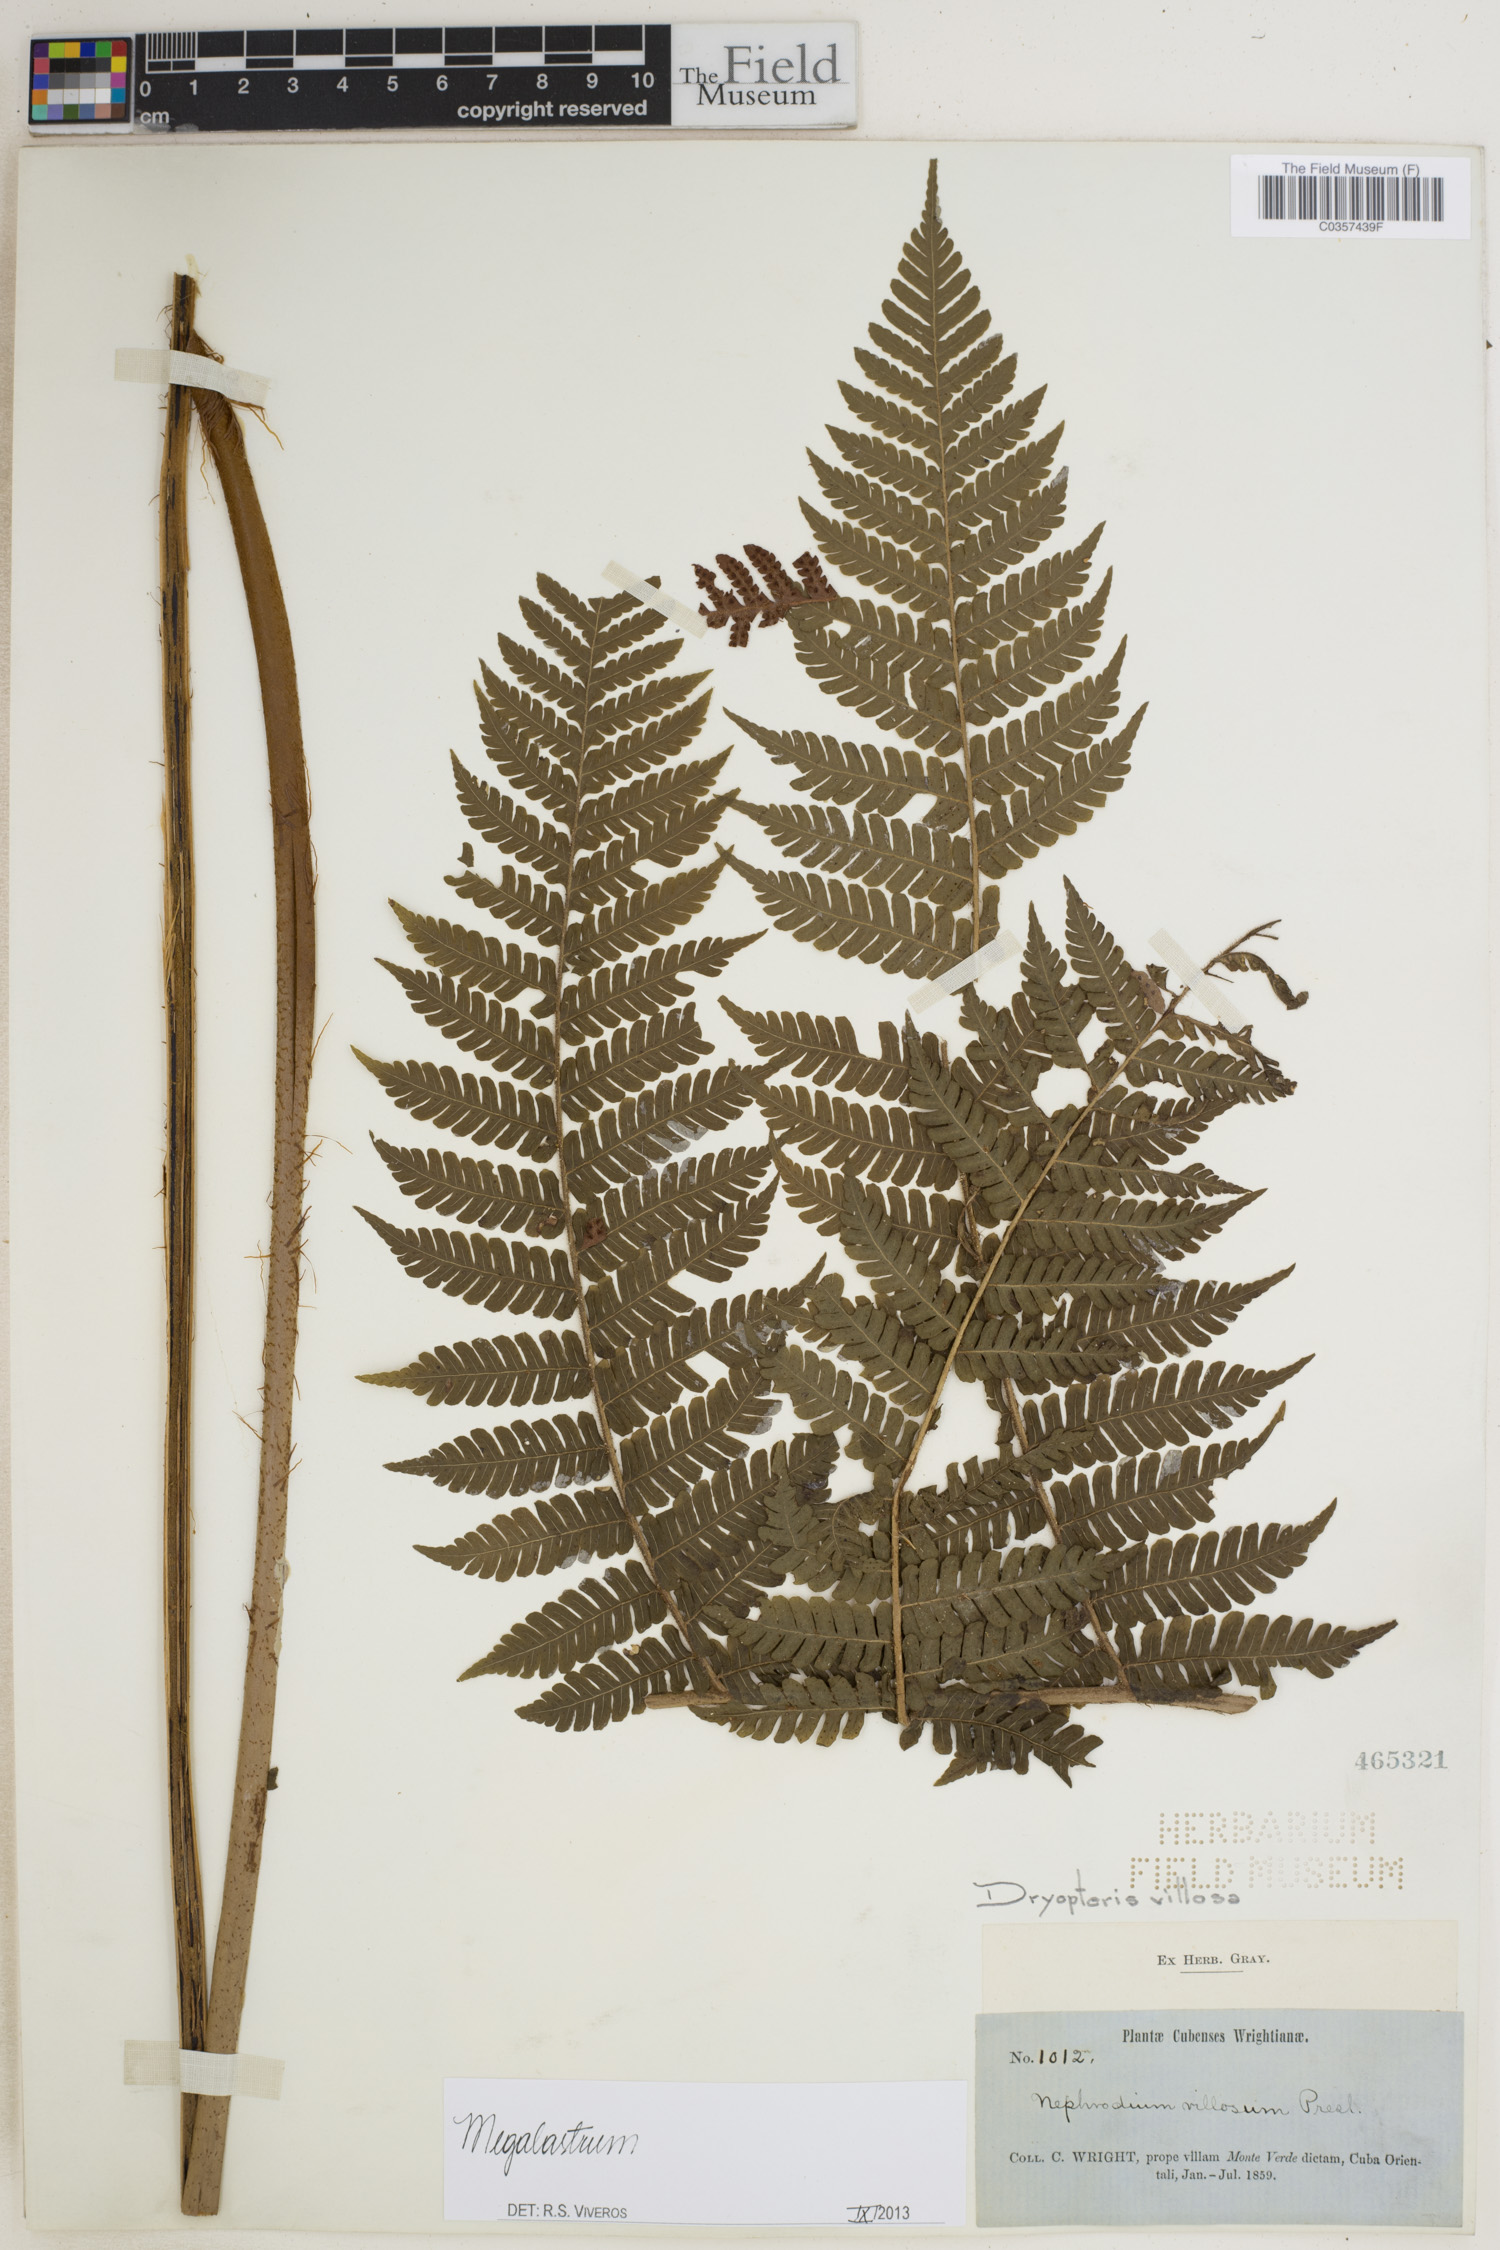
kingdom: Plantae
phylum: Tracheophyta
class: Polypodiopsida
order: Polypodiales
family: Dryopteridaceae
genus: Megalastrum
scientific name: Megalastrum
